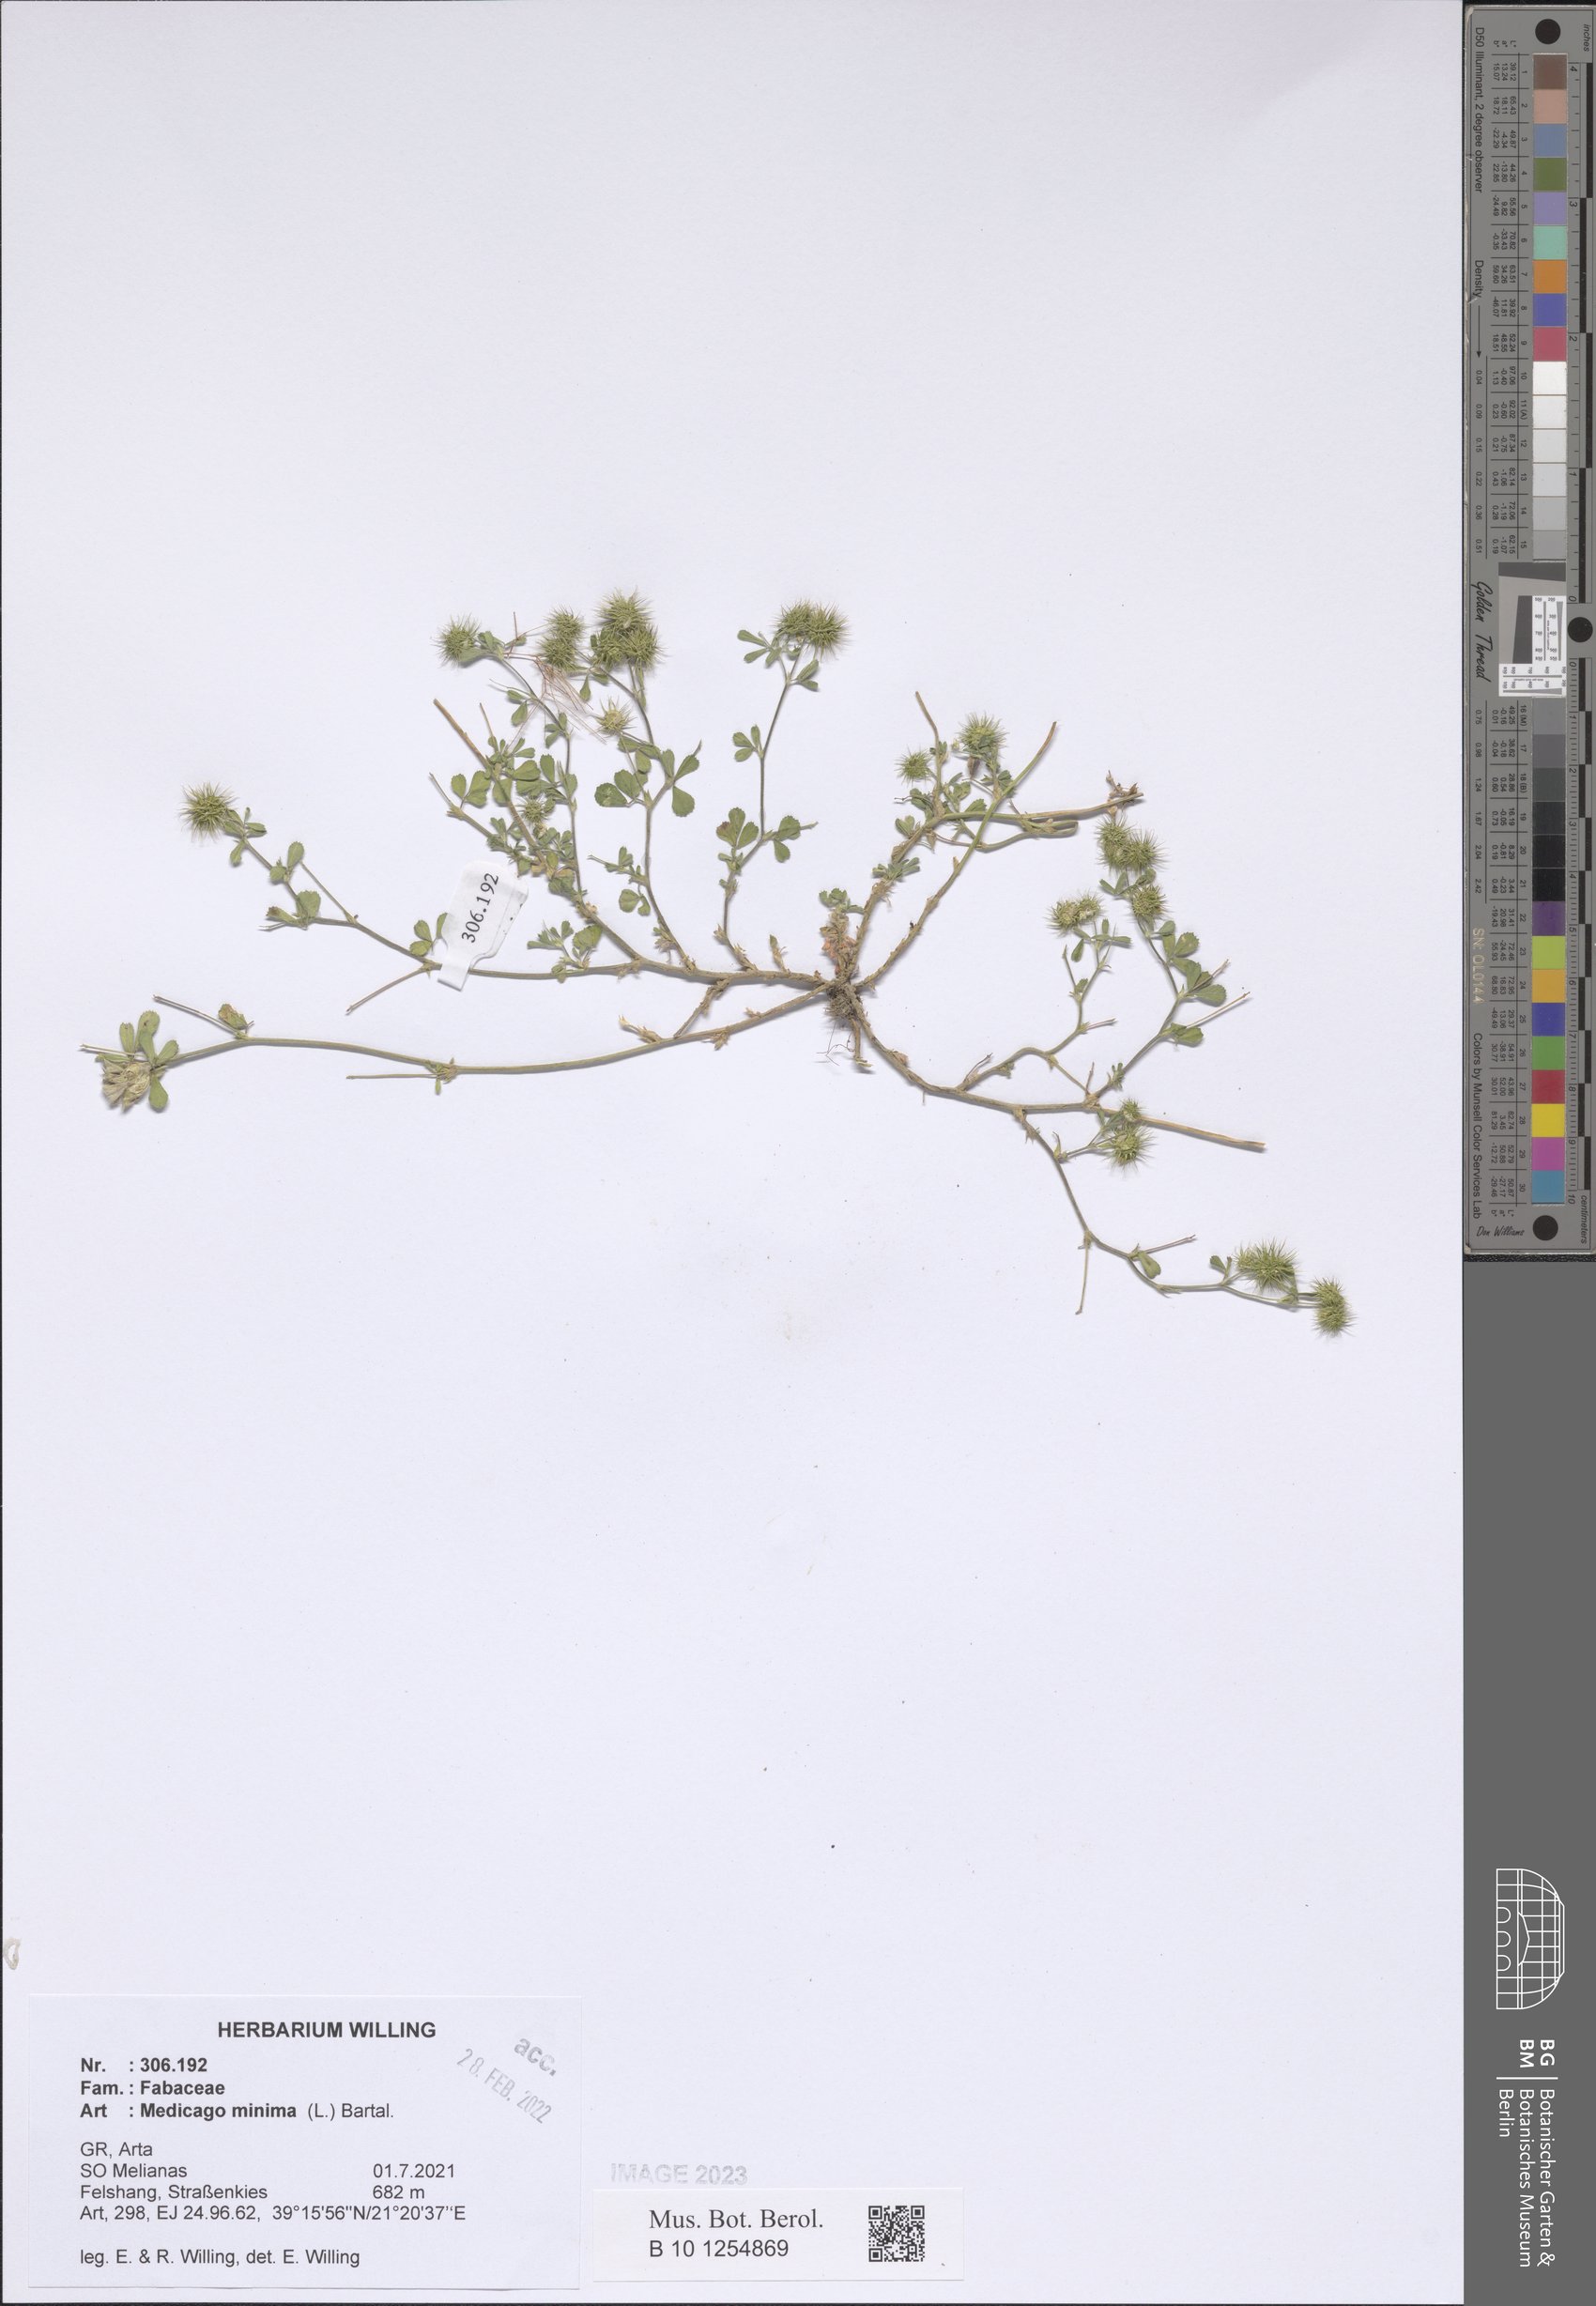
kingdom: Plantae
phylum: Tracheophyta
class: Magnoliopsida
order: Fabales
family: Fabaceae
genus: Medicago
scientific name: Medicago minima
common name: Little bur-clover
